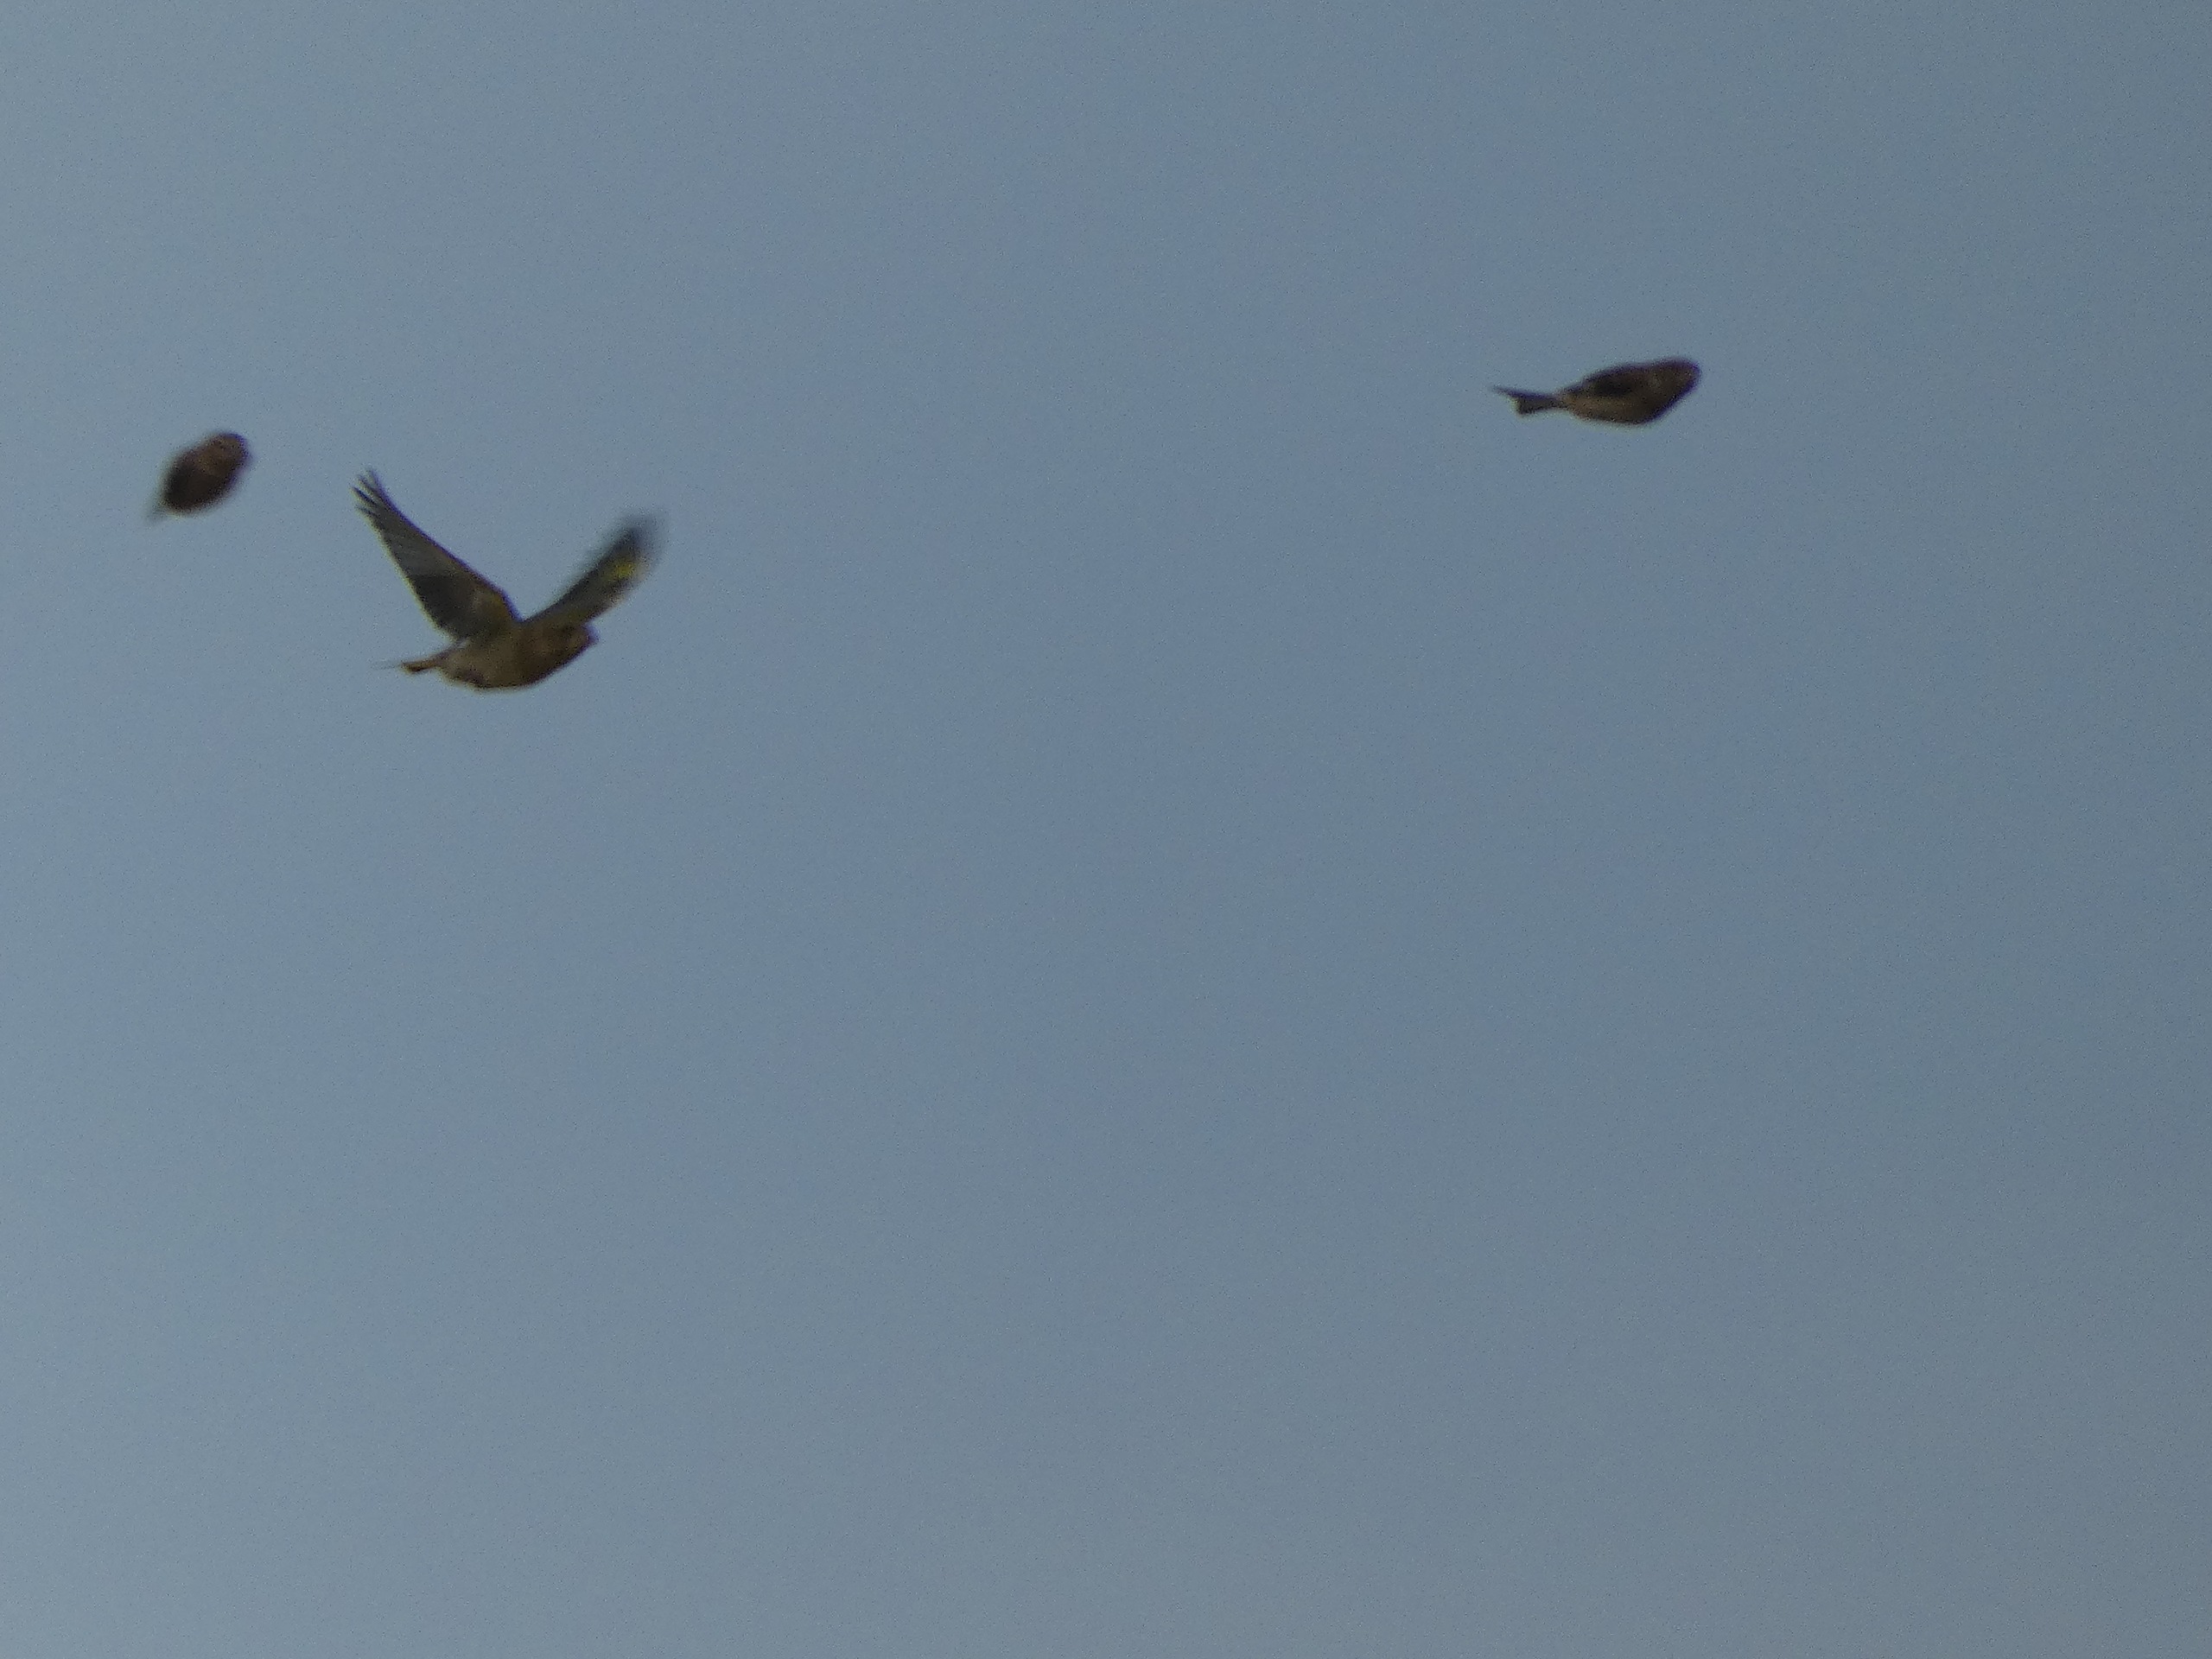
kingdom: Plantae
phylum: Tracheophyta
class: Liliopsida
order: Poales
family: Poaceae
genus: Chloris
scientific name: Chloris chloris
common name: Grønirisk
